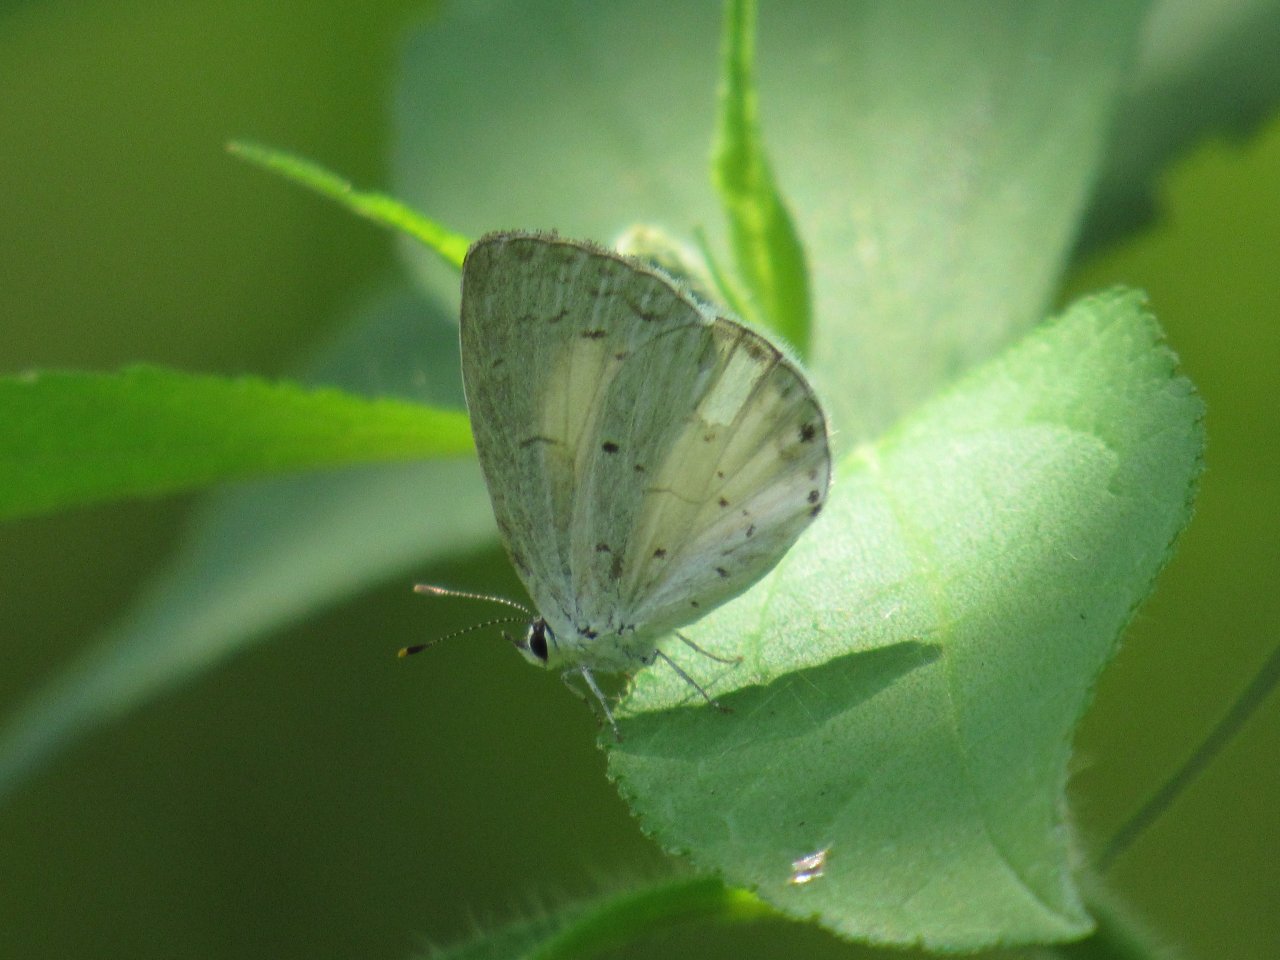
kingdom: Animalia
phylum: Arthropoda
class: Insecta
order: Lepidoptera
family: Lycaenidae
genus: Cyaniris
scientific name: Cyaniris neglecta
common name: Summer Azure
